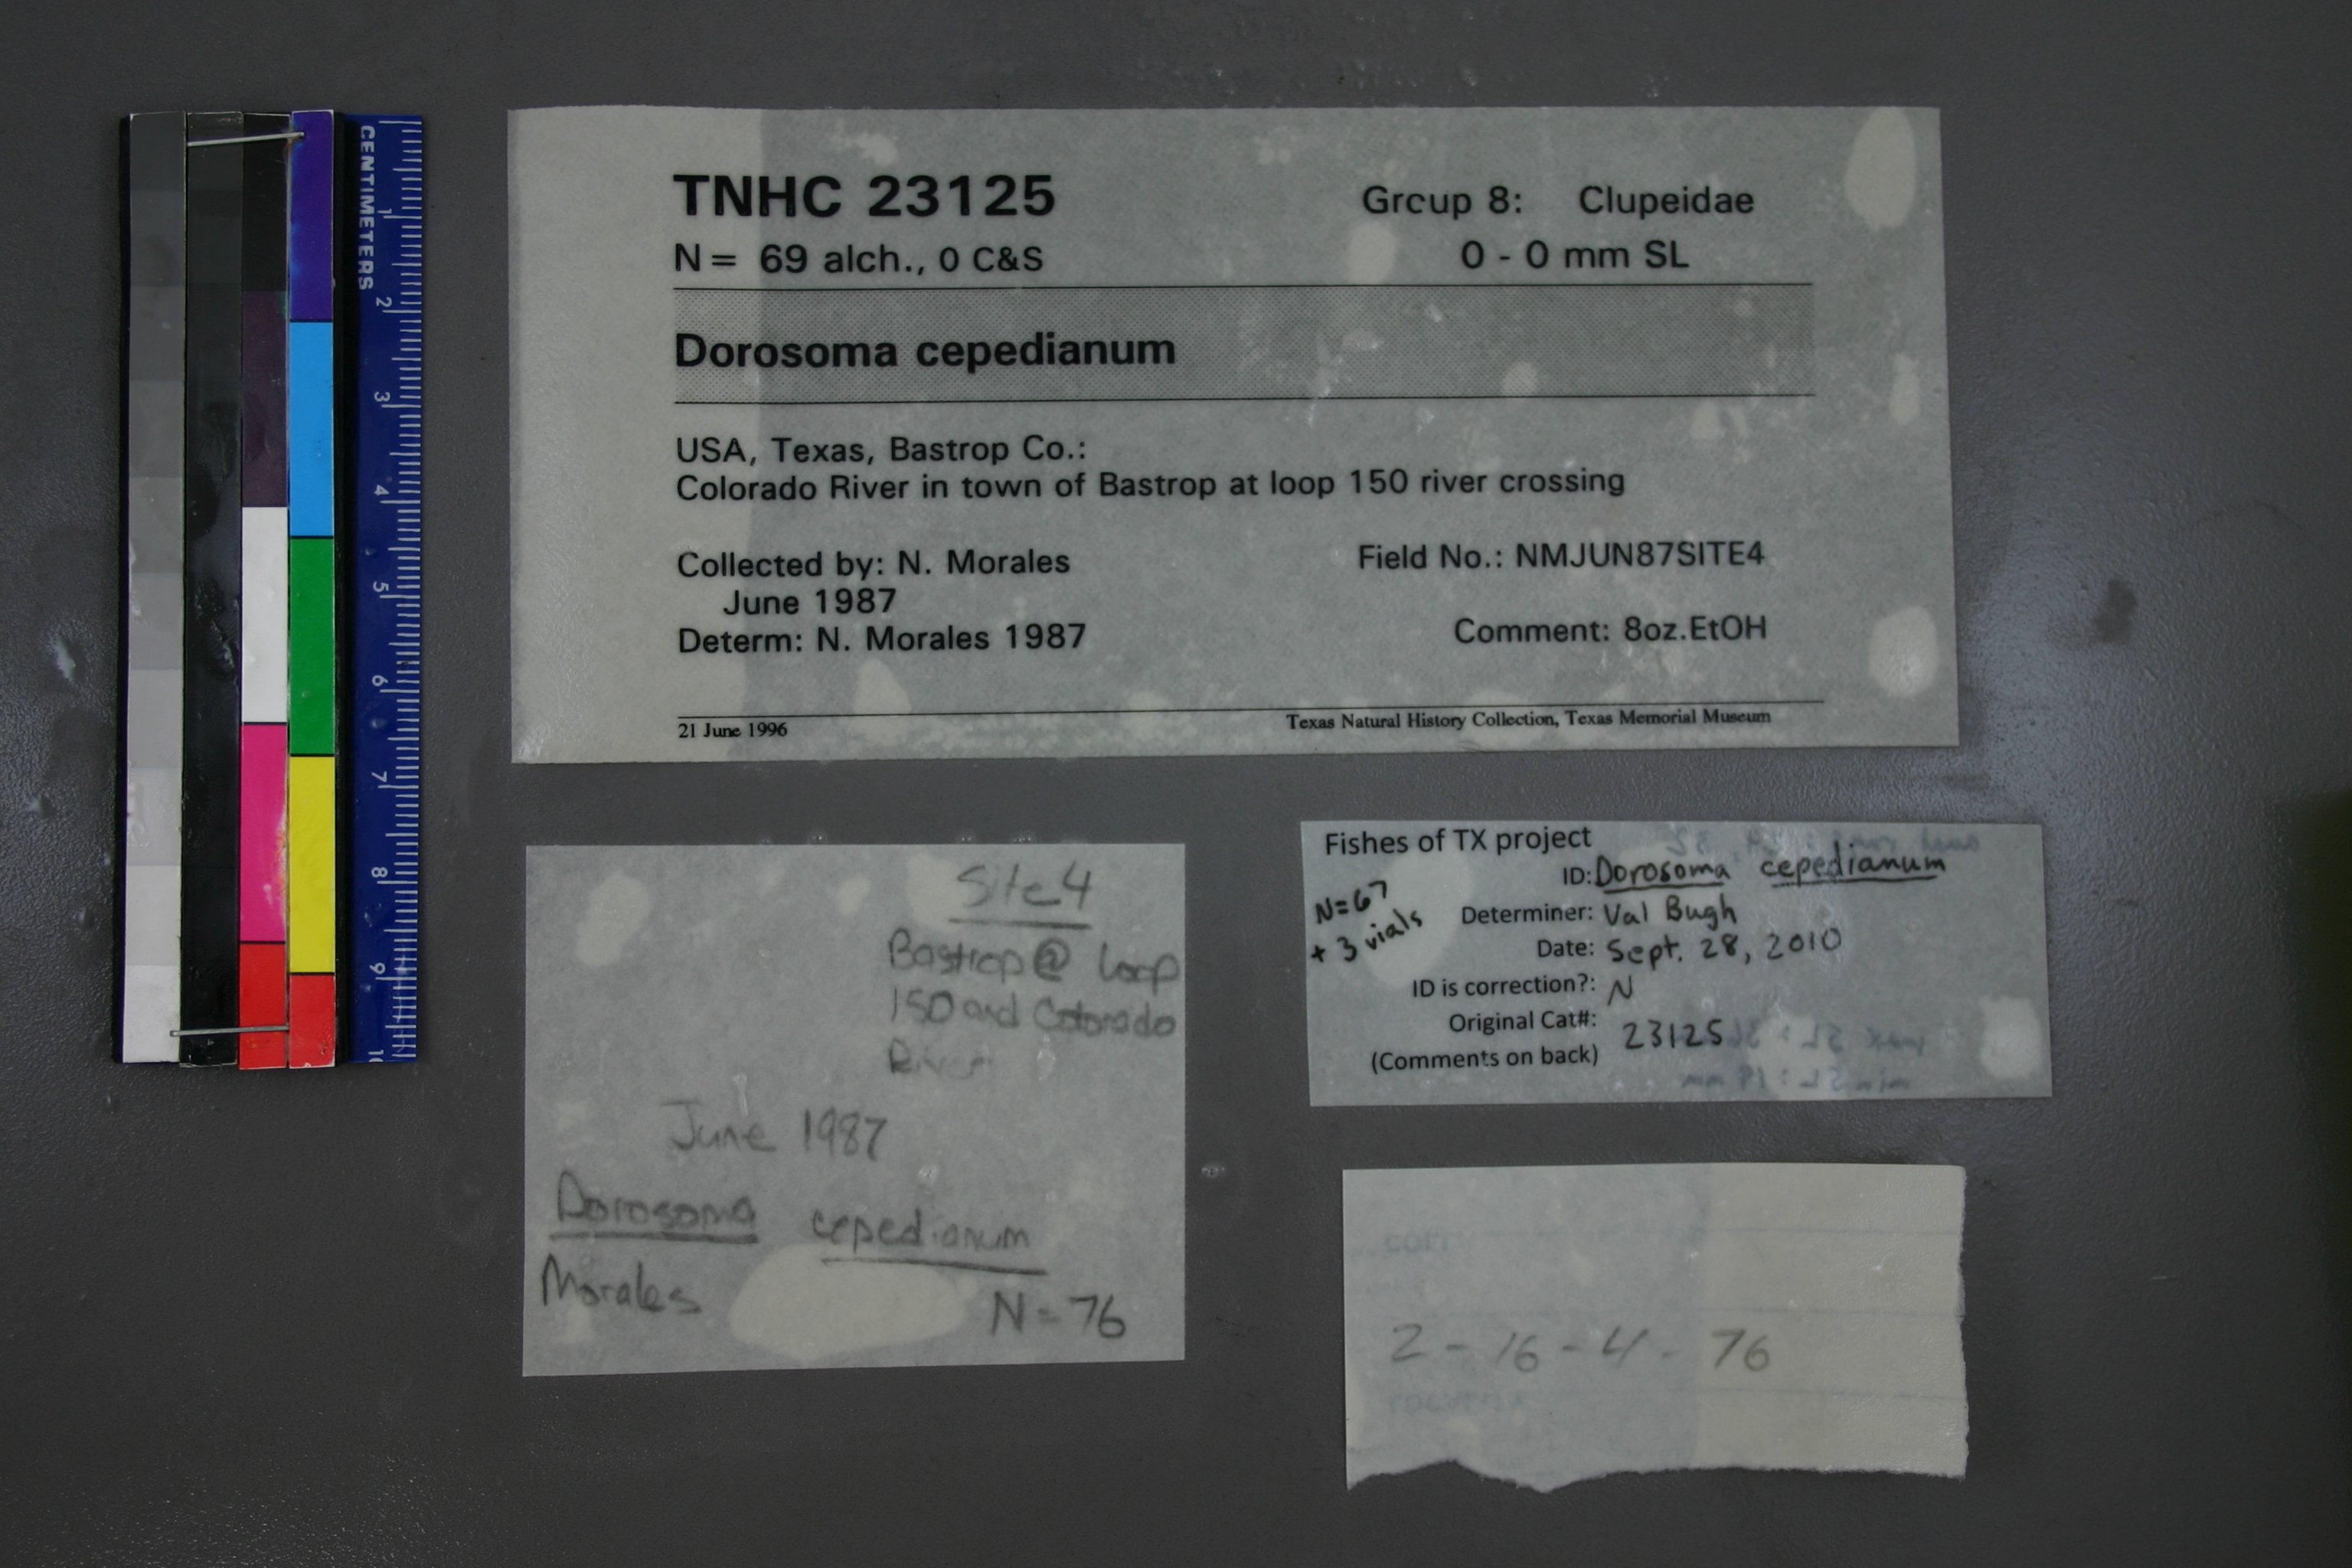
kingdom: Animalia
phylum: Chordata
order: Clupeiformes
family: Clupeidae
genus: Dorosoma
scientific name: Dorosoma cepedianum
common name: Gizzard shad
